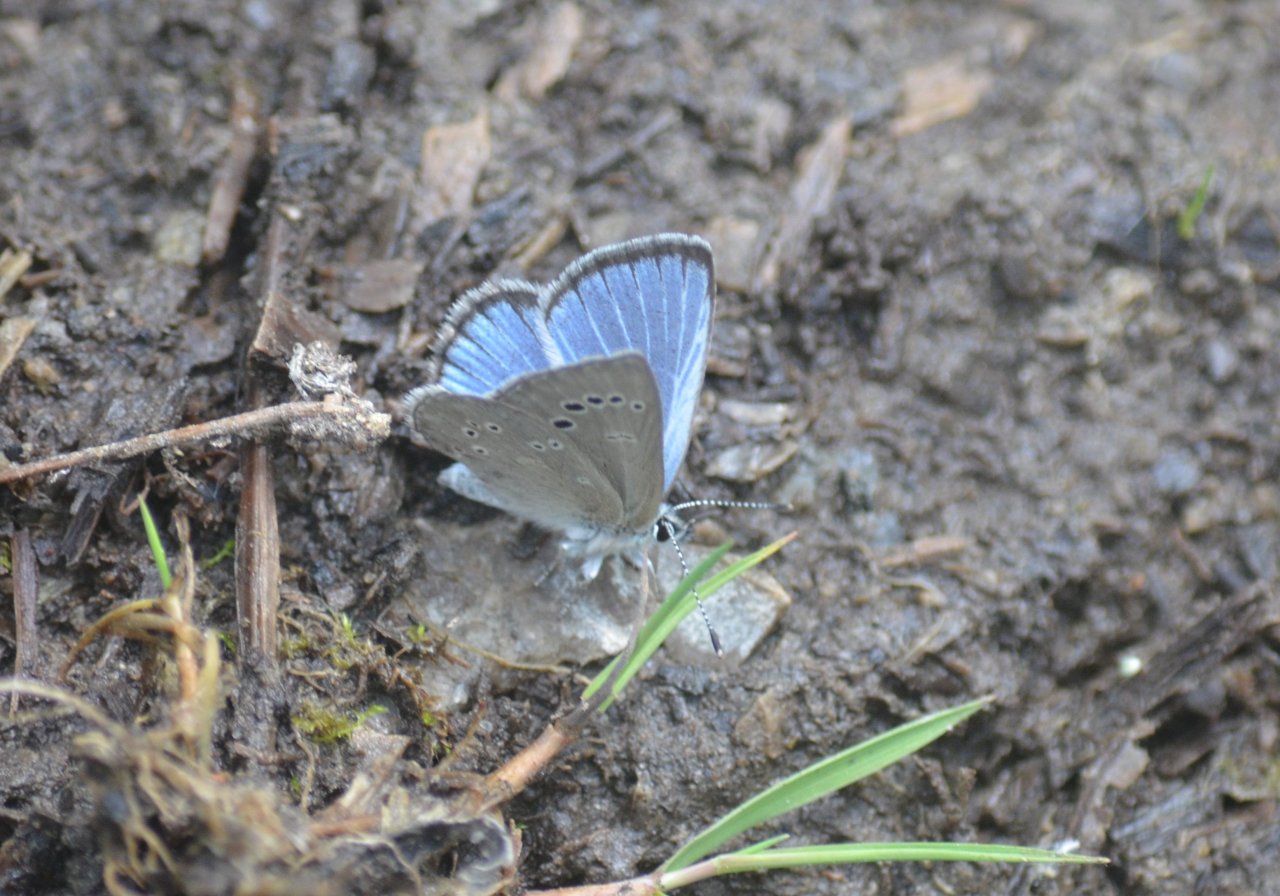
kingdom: Animalia
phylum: Arthropoda
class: Insecta
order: Lepidoptera
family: Lycaenidae
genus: Glaucopsyche
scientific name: Glaucopsyche lygdamus
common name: Silvery Blue
